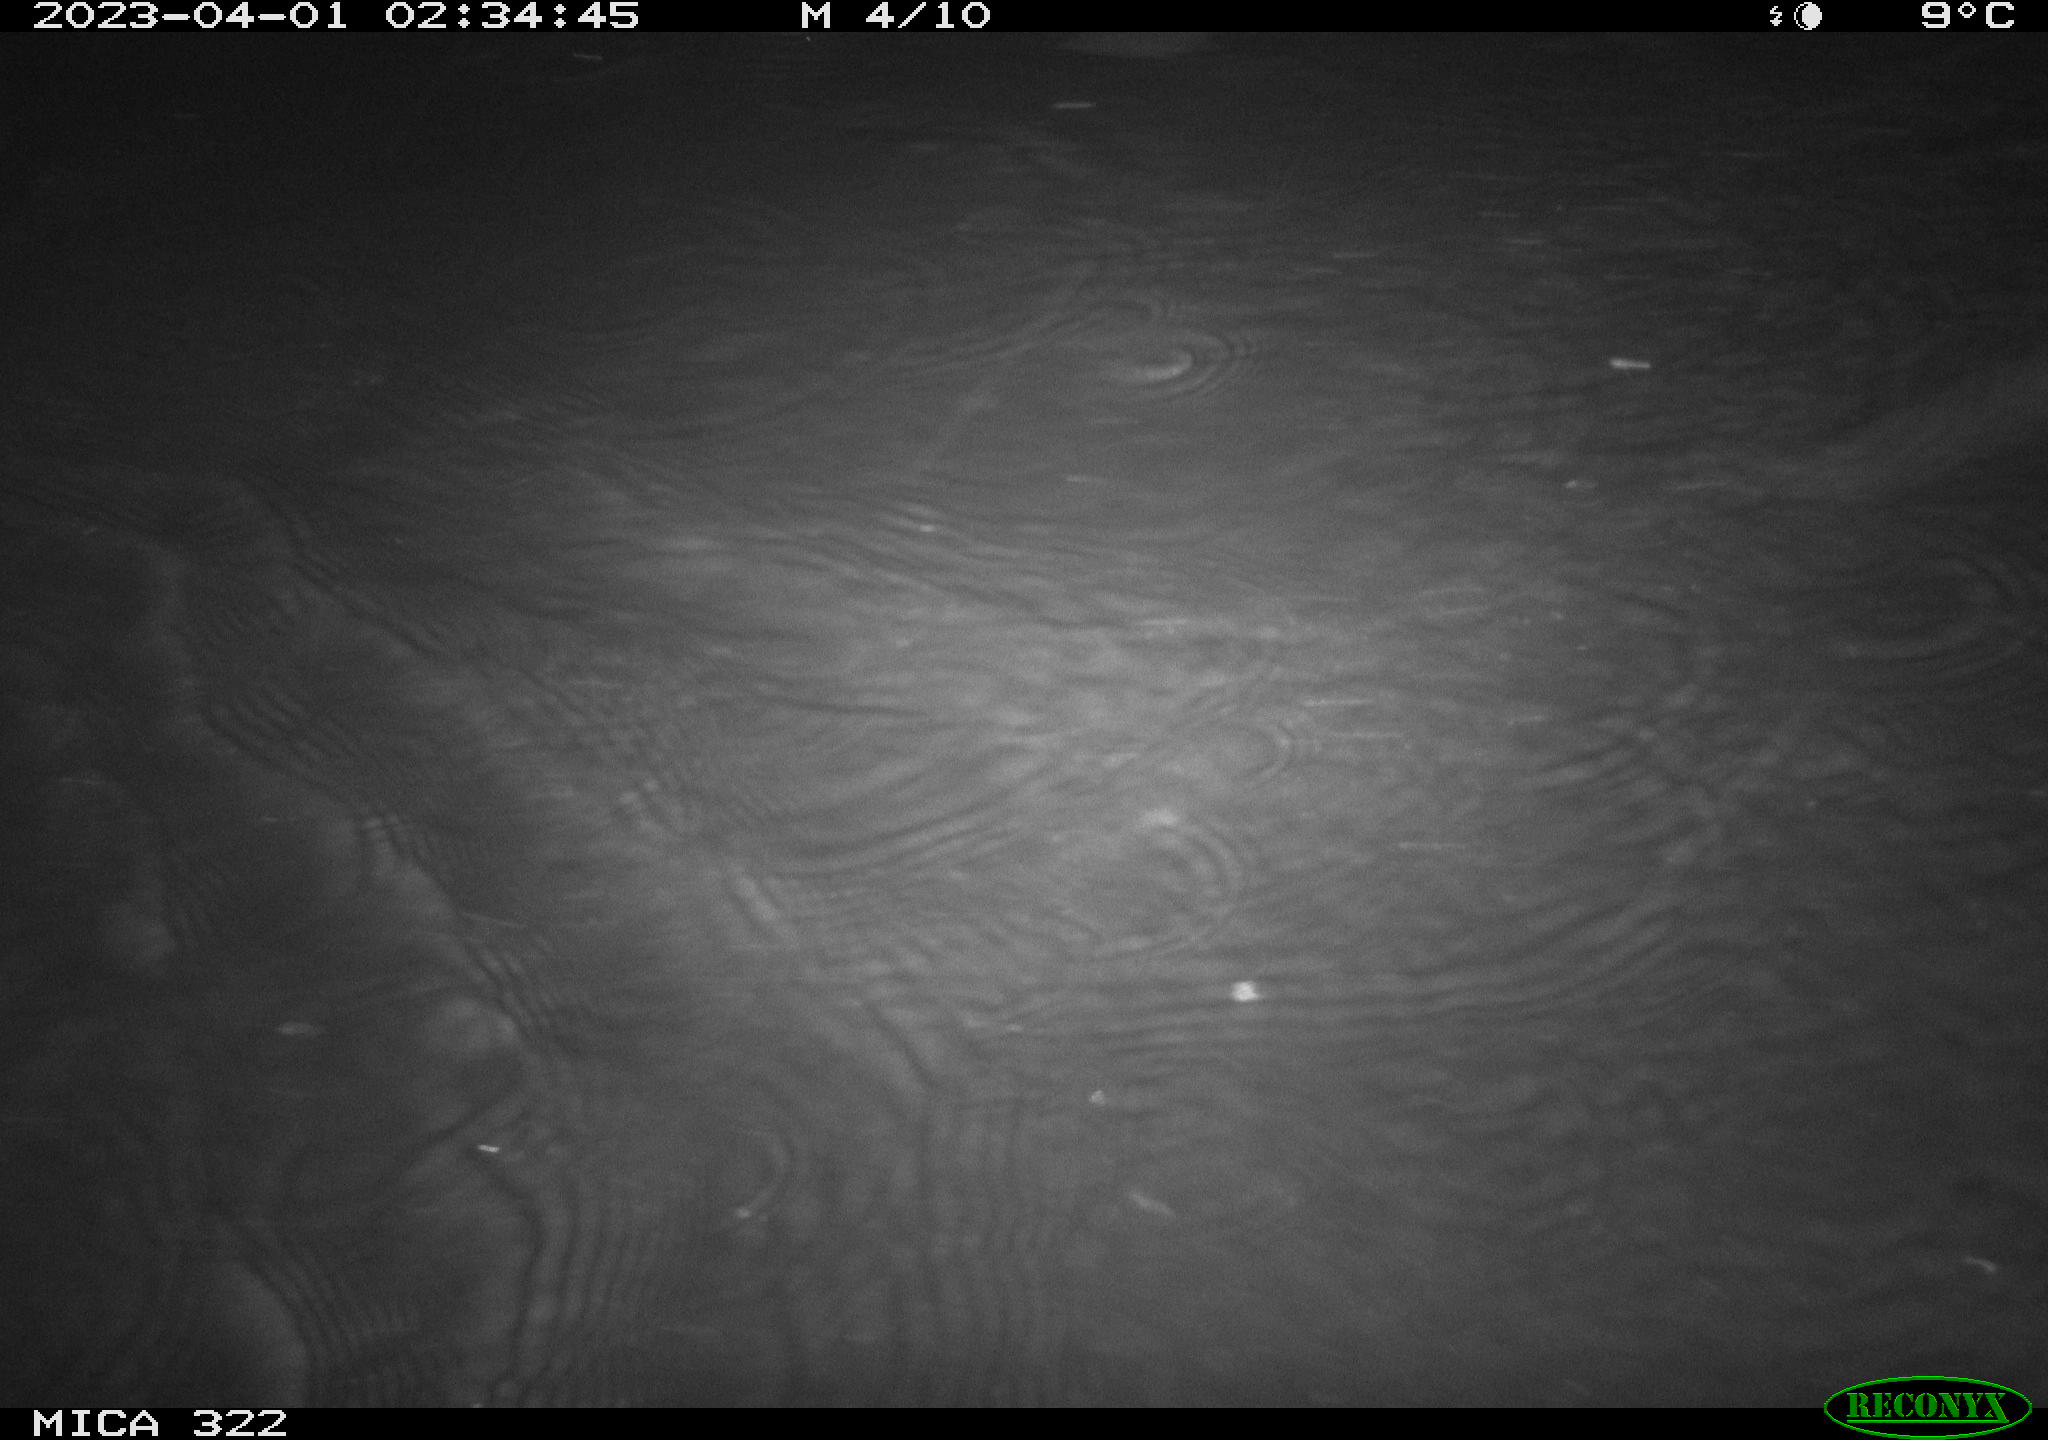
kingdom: Animalia
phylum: Chordata
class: Mammalia
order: Rodentia
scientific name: Rodentia
